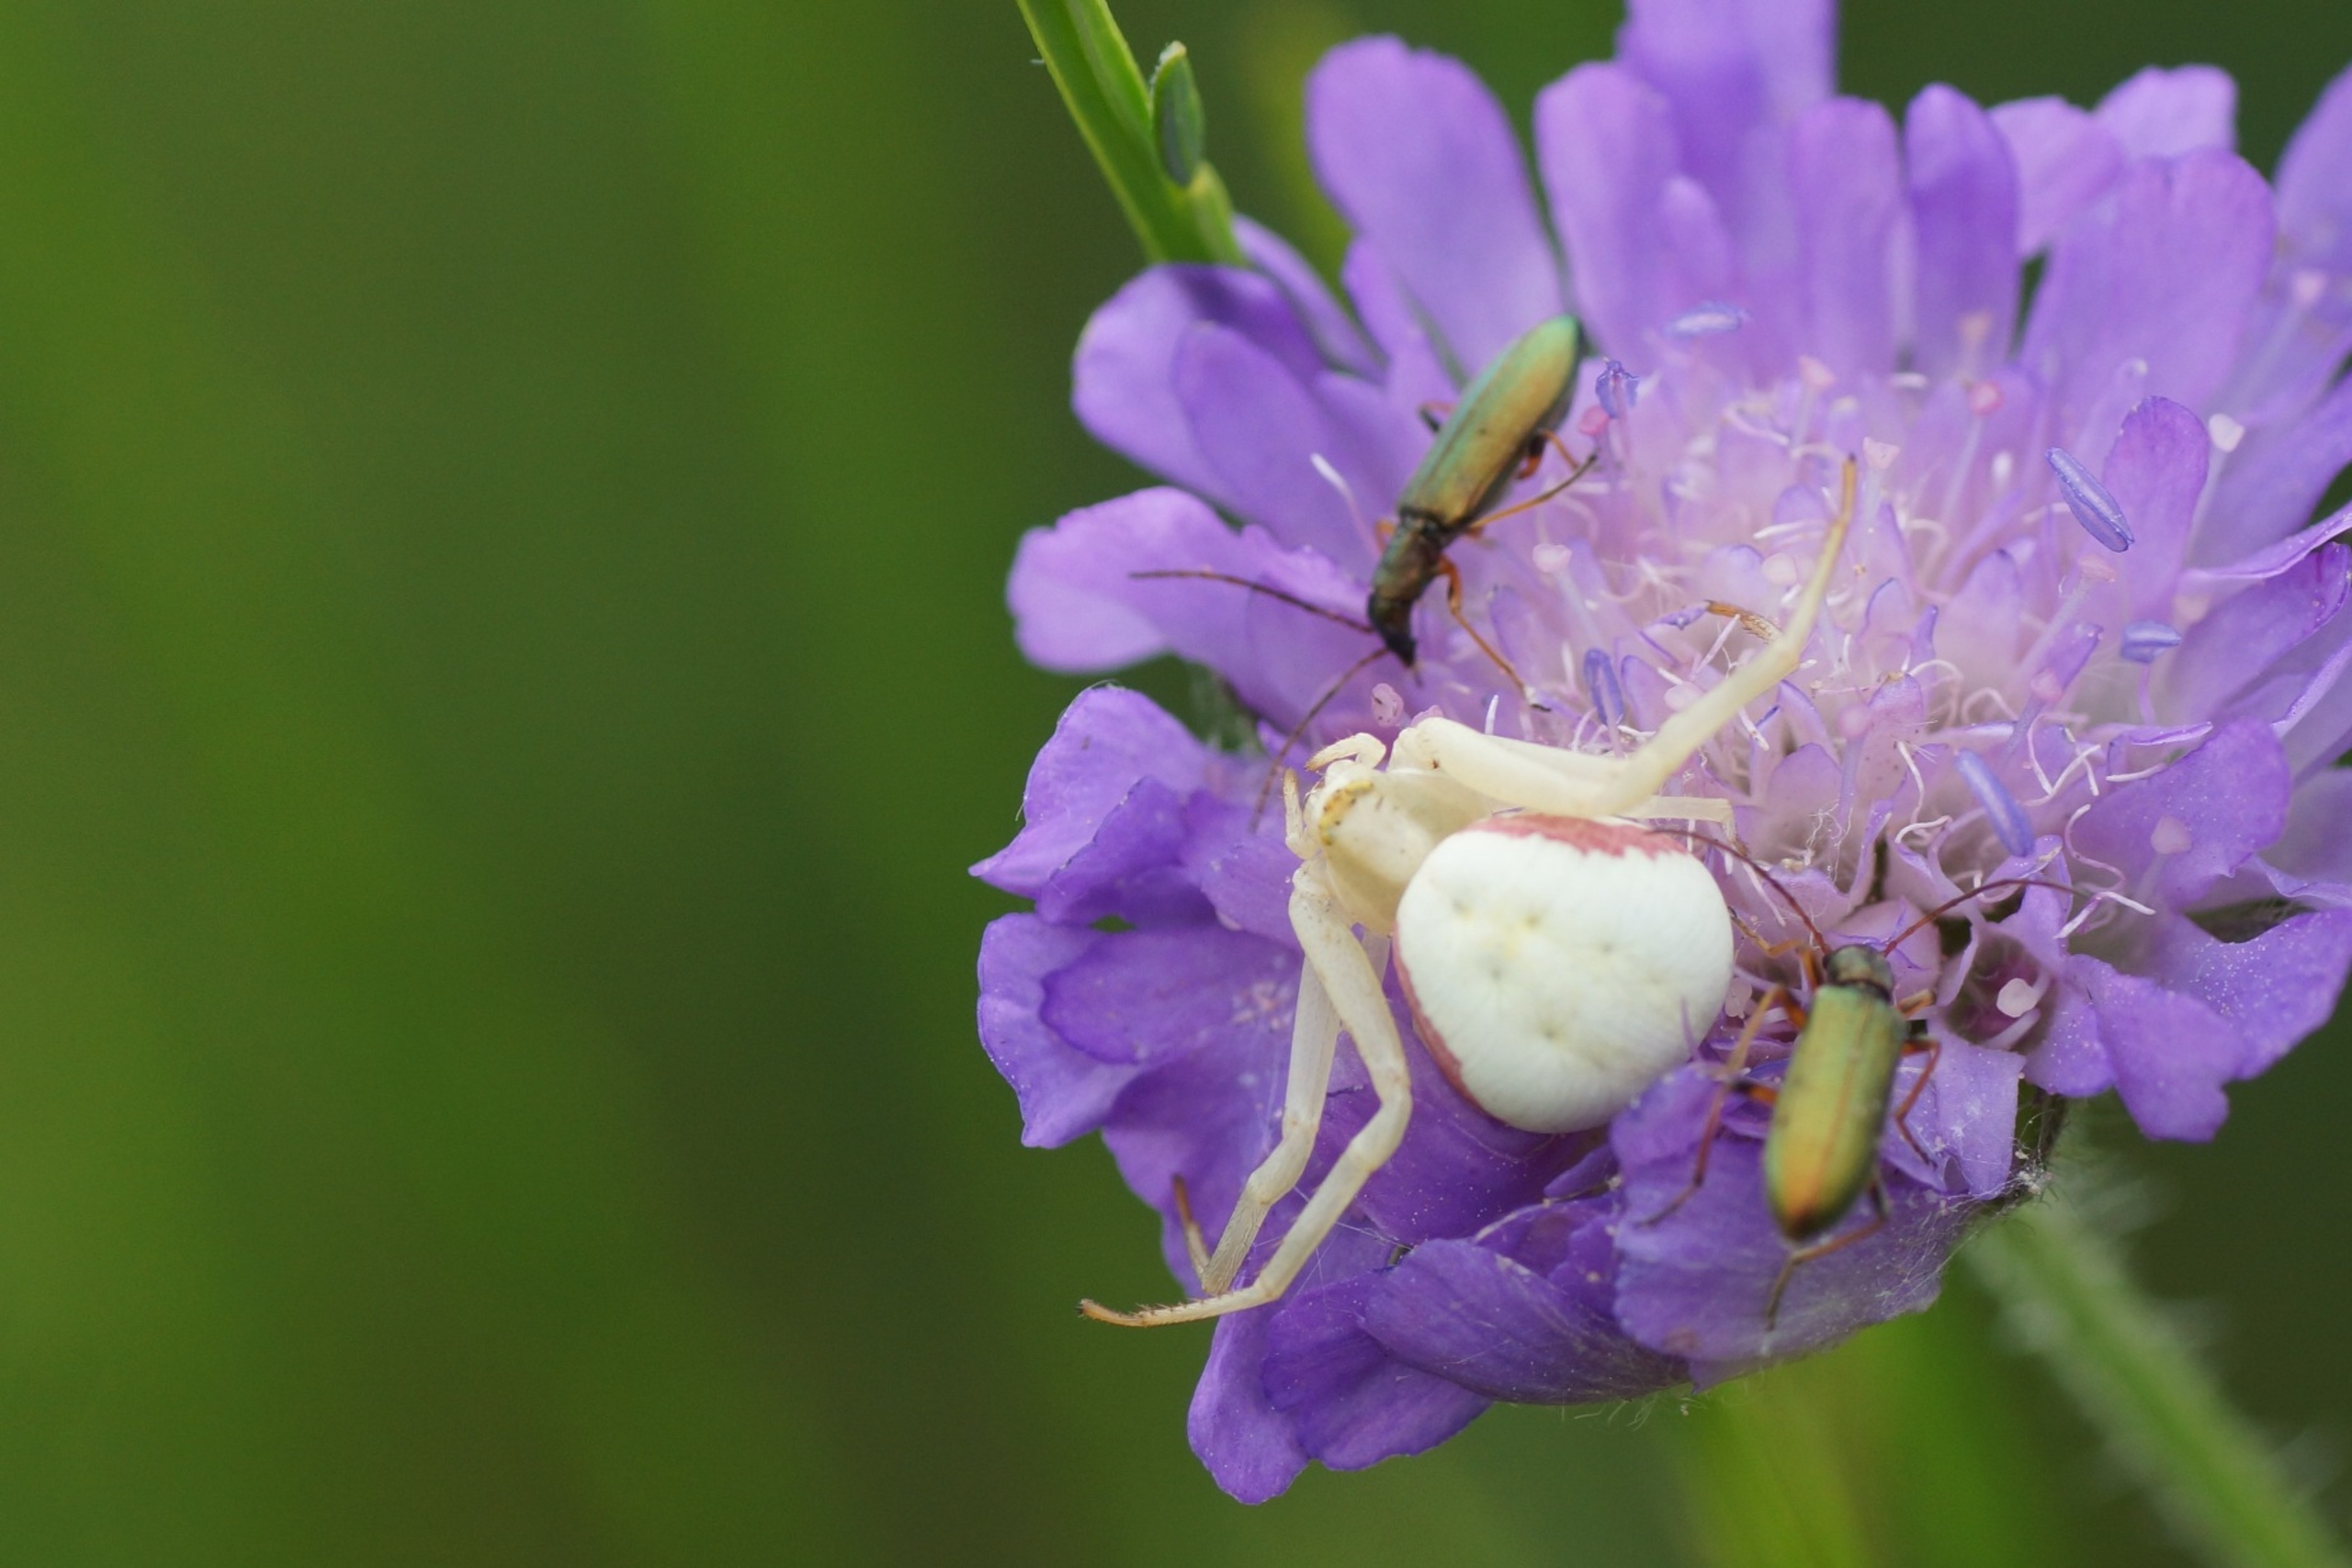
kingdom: Animalia
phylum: Arthropoda
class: Arachnida
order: Araneae
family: Thomisidae
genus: Misumena
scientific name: Misumena vatia
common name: Kamæleonedderkop
